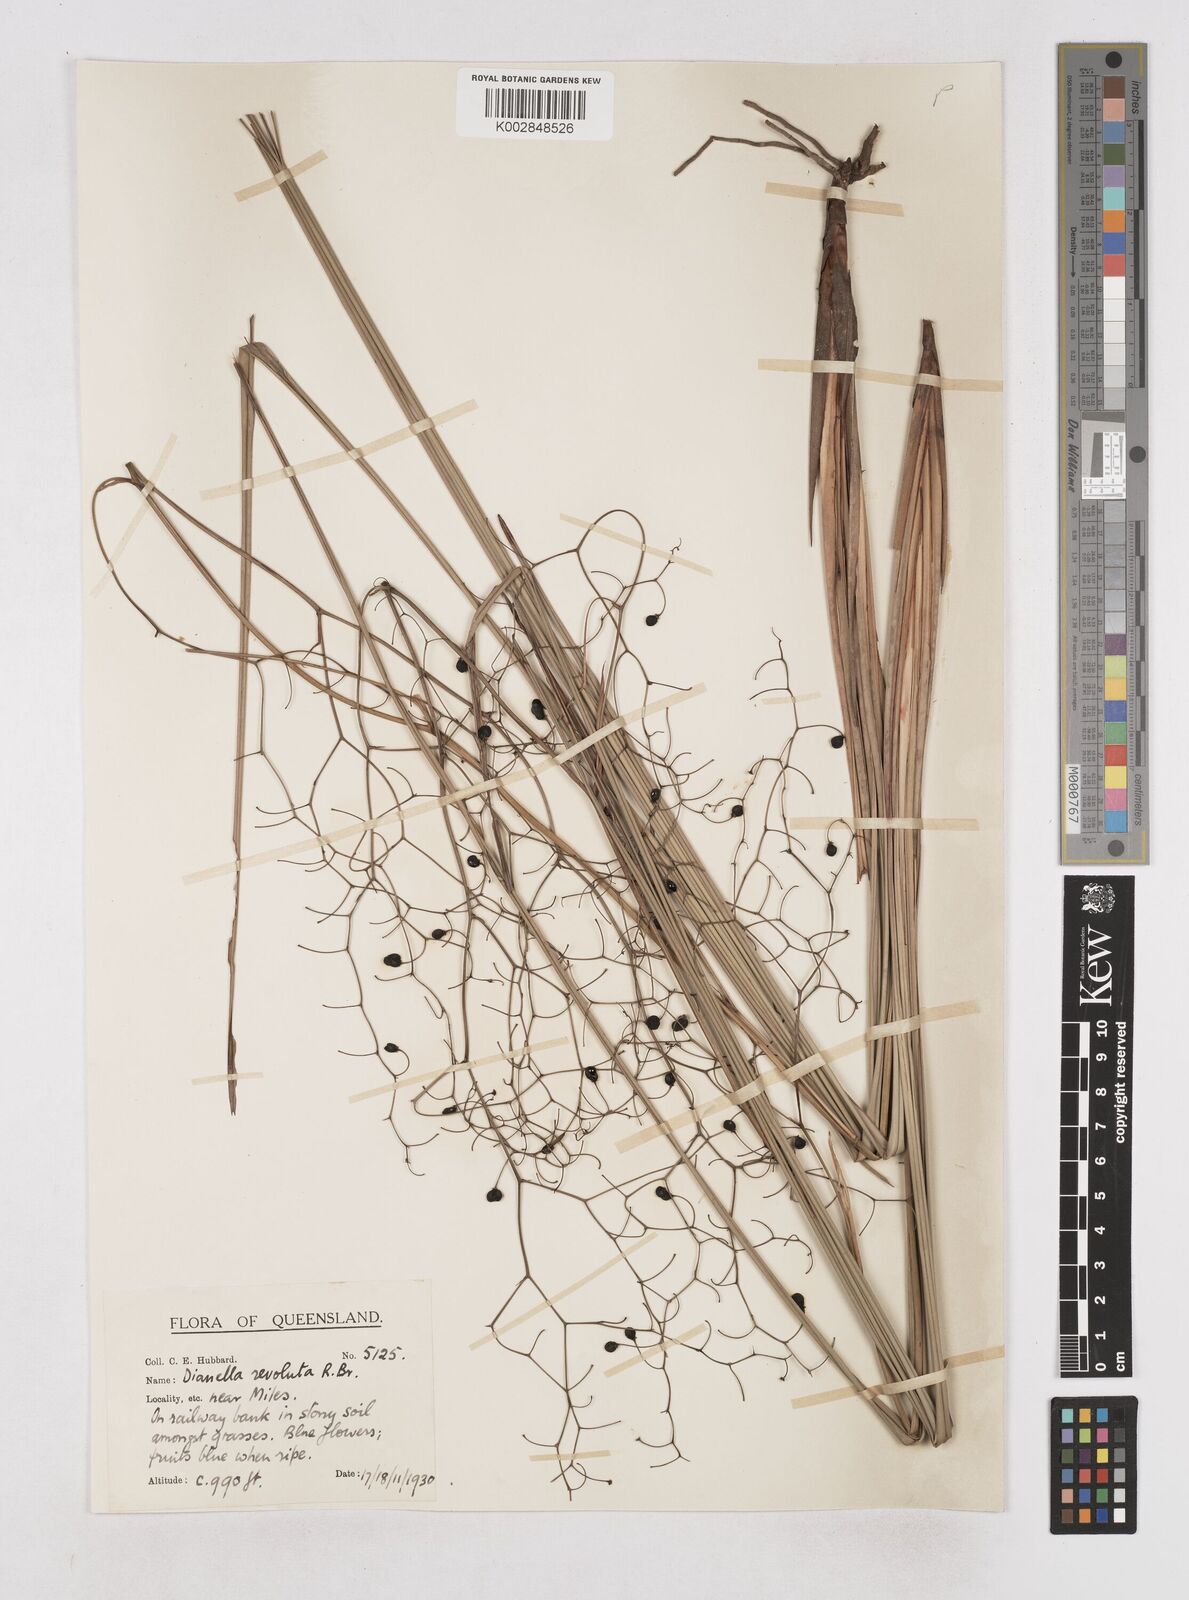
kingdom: Plantae
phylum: Tracheophyta
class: Liliopsida
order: Asparagales
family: Asphodelaceae
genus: Dianella
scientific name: Dianella revoluta
